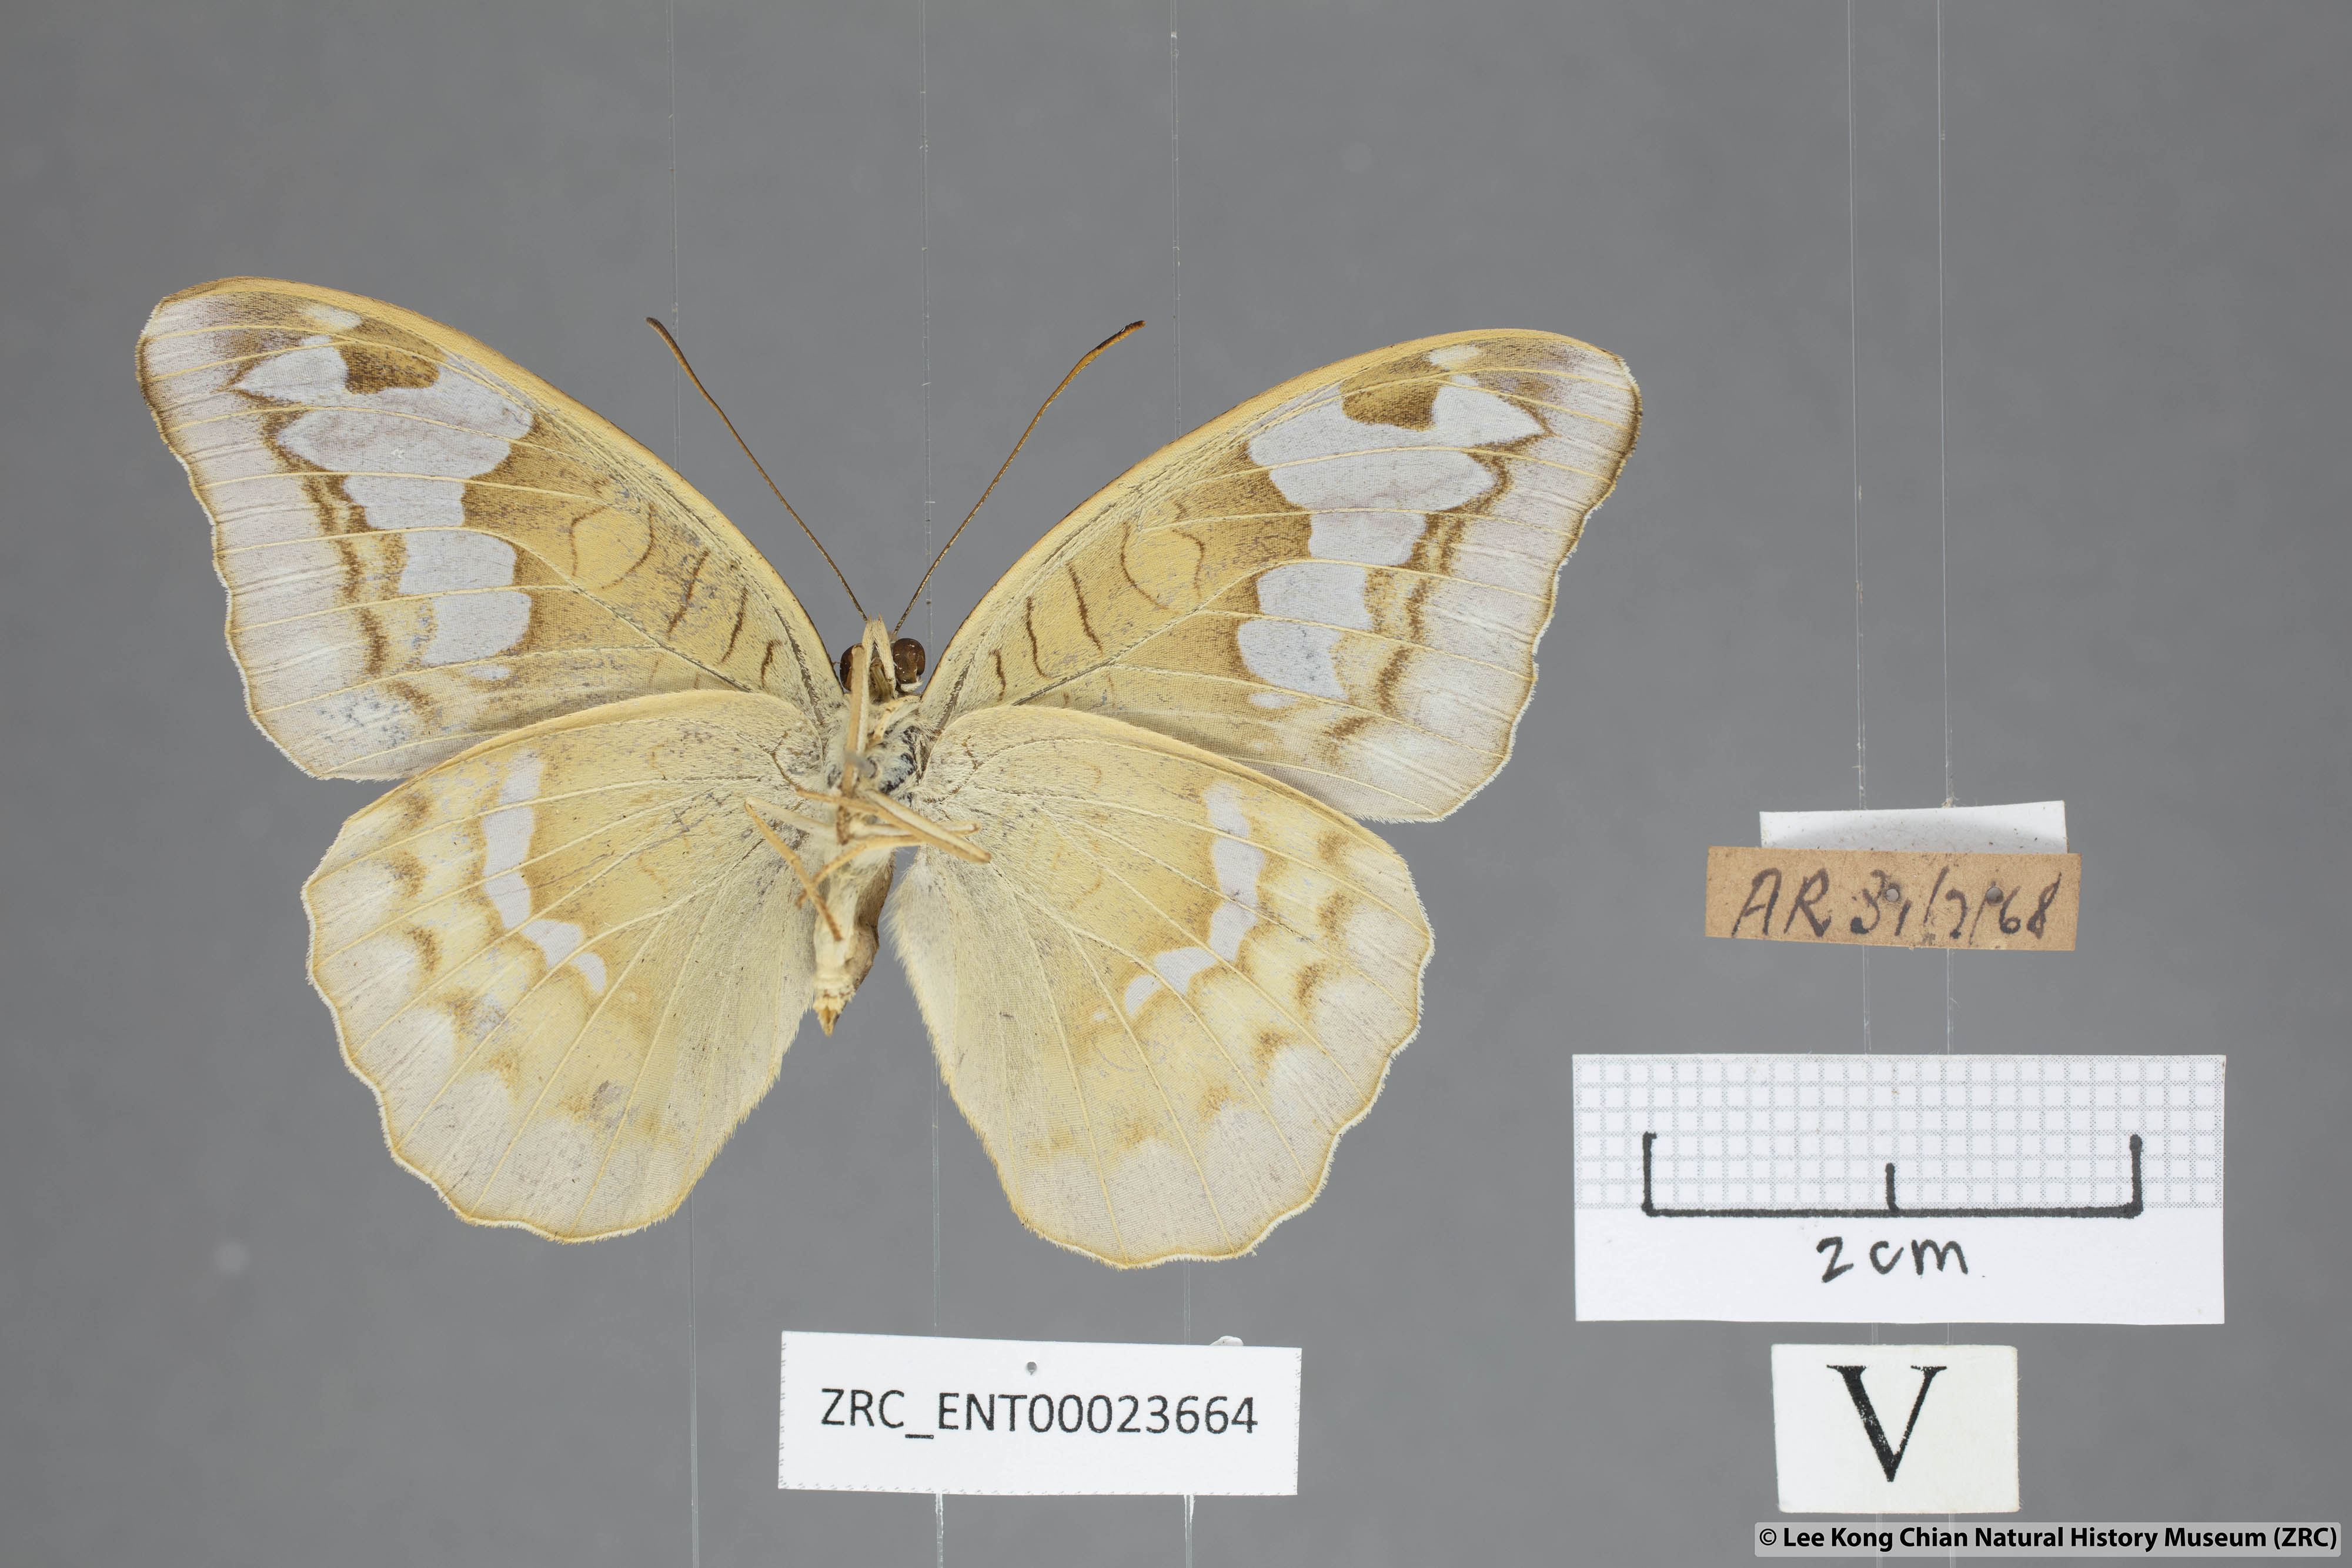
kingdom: Animalia
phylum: Arthropoda
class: Insecta
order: Lepidoptera
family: Nymphalidae
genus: Tanaecia
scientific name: Tanaecia godartii
